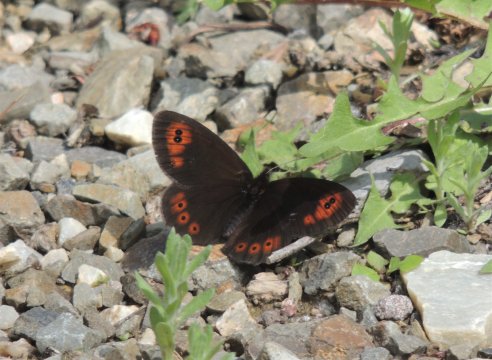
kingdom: Animalia
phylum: Arthropoda
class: Insecta
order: Lepidoptera
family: Nymphalidae
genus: Erebia
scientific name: Erebia epipsodea
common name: Common Alpine
